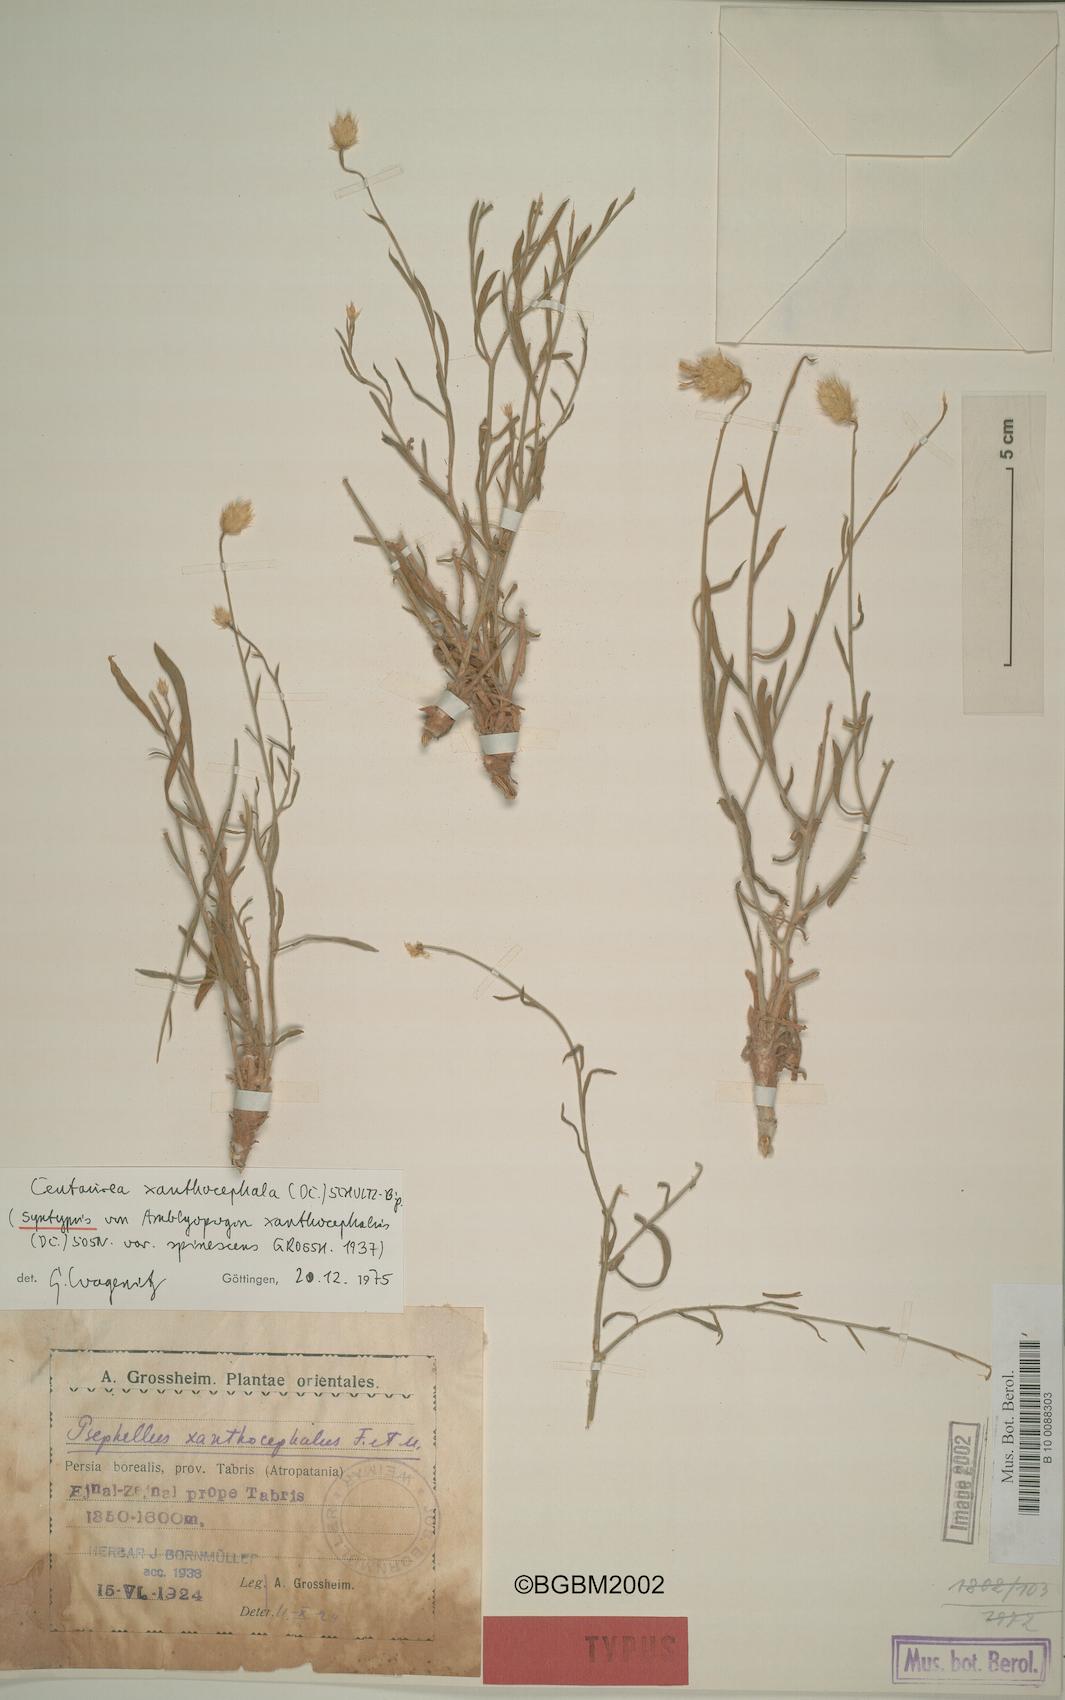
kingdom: Plantae
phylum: Tracheophyta
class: Magnoliopsida
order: Asterales
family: Asteraceae
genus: Psephellus
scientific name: Psephellus xanthocephalus
